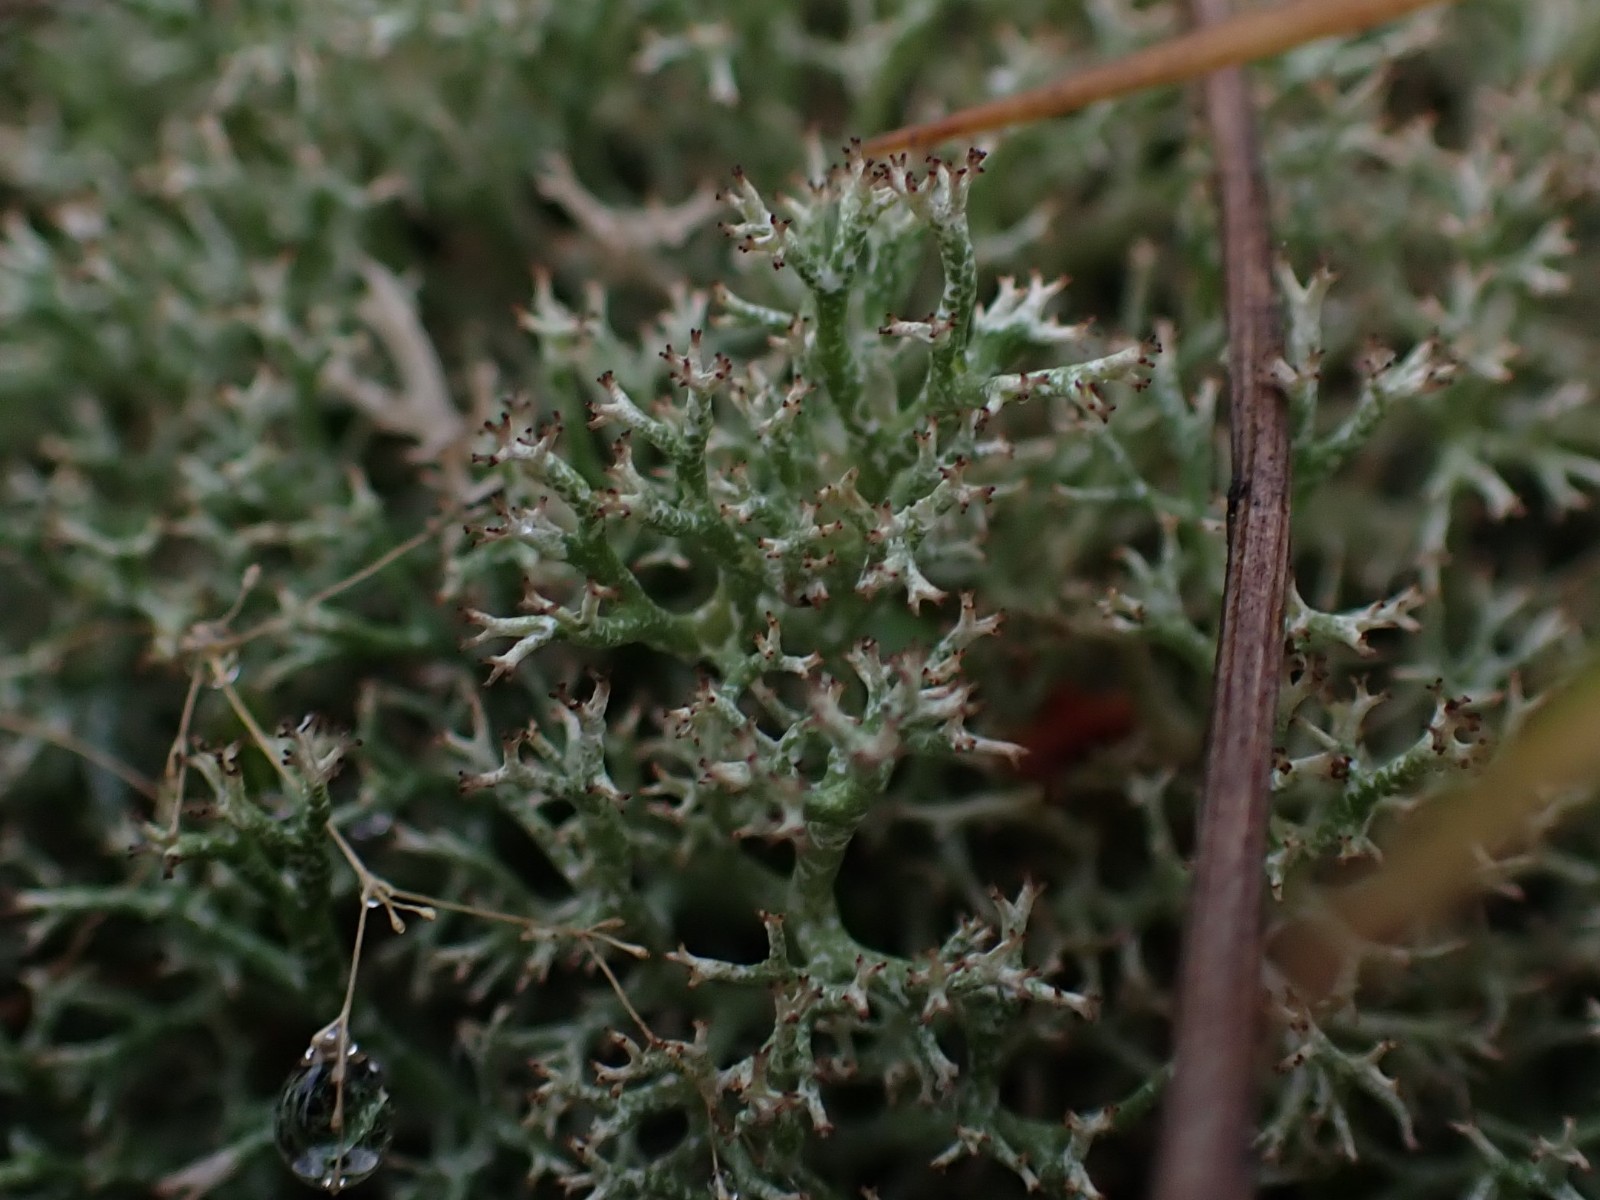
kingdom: Fungi
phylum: Ascomycota
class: Lecanoromycetes
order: Lecanorales
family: Cladoniaceae
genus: Cladonia
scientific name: Cladonia rangiformis
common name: spættet bægerlav
